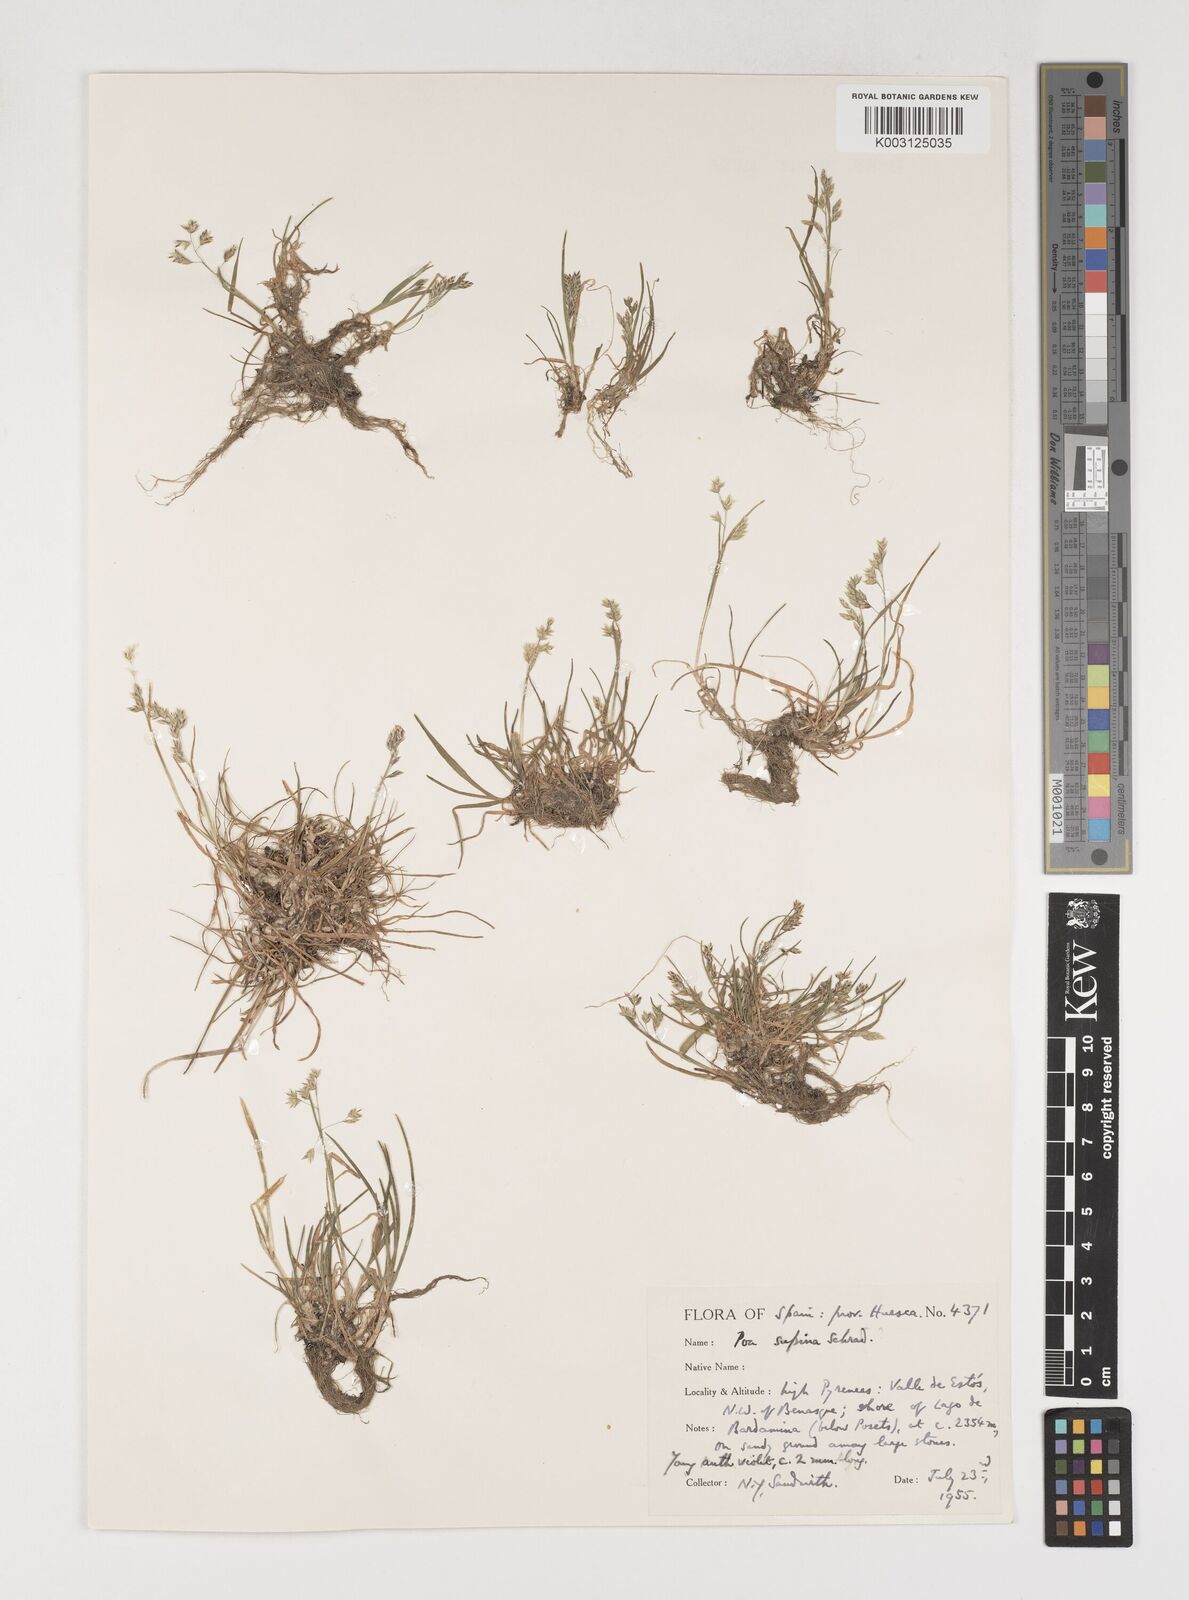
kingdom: Plantae
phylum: Tracheophyta
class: Liliopsida
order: Poales
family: Poaceae
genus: Poa
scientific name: Poa supina
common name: Supina bluegrass
